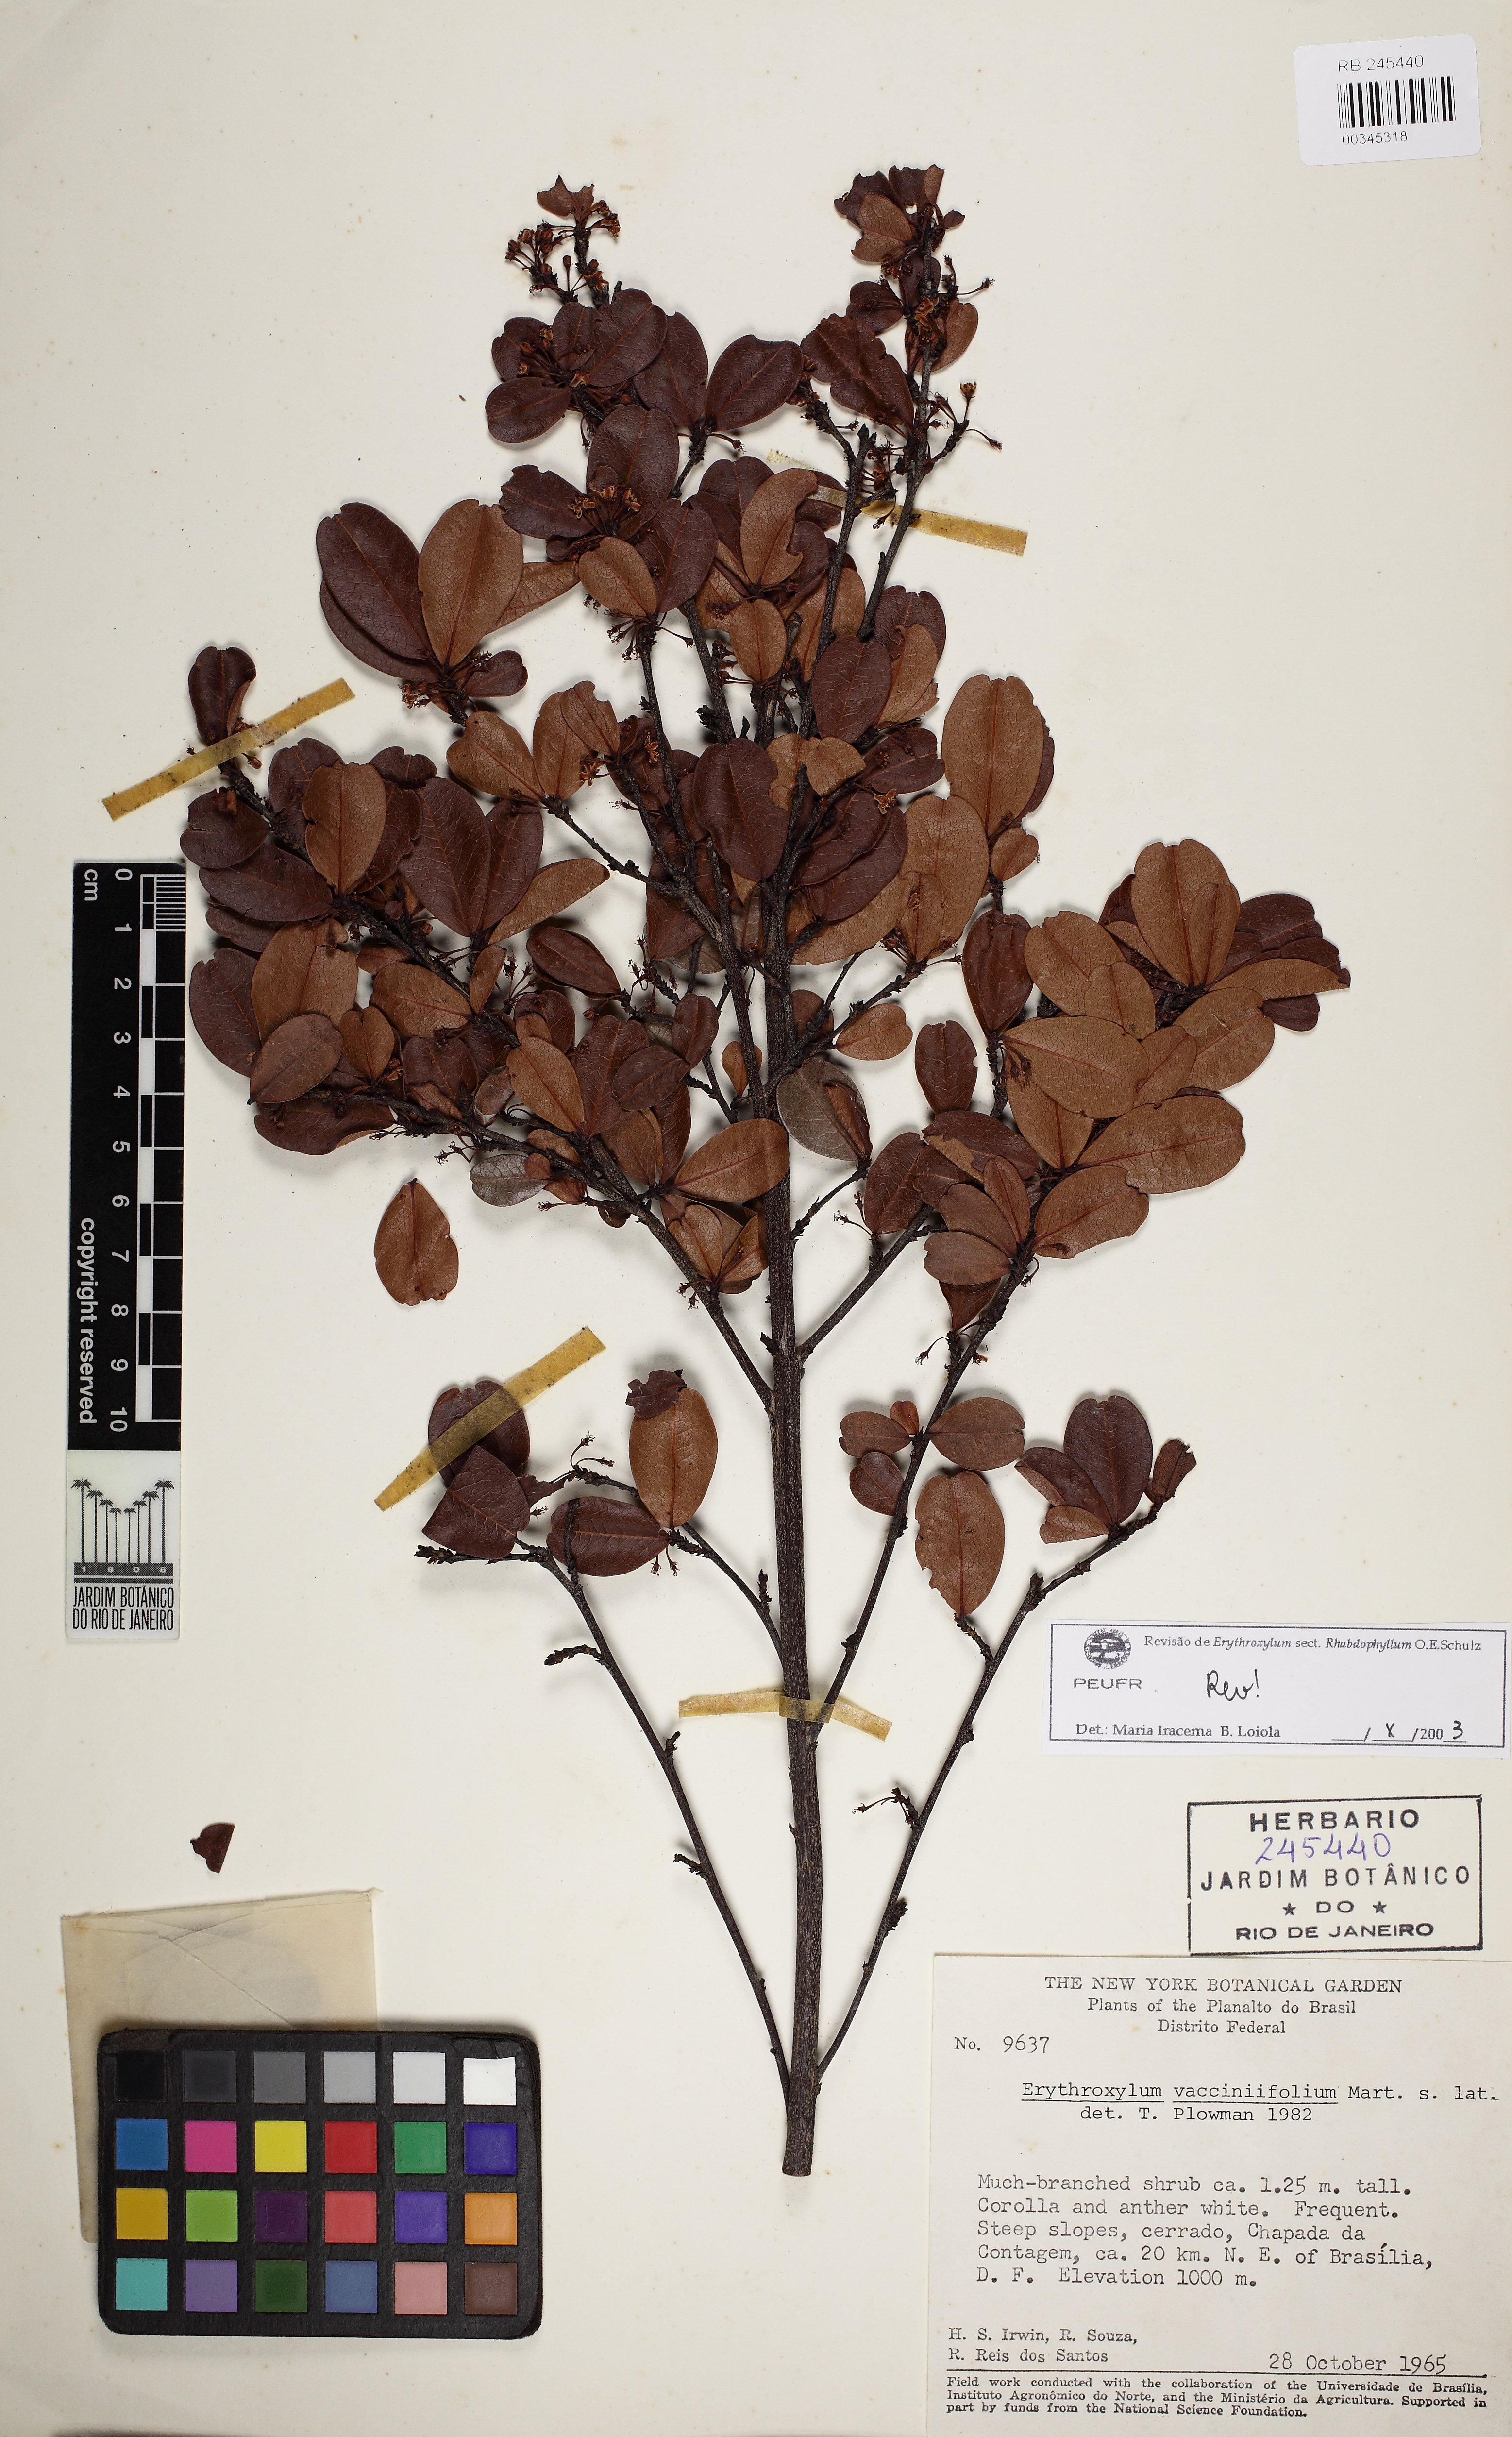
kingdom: Plantae
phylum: Tracheophyta
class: Magnoliopsida
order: Malpighiales
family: Erythroxylaceae
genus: Erythroxylum
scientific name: Erythroxylum vaccinifolium
